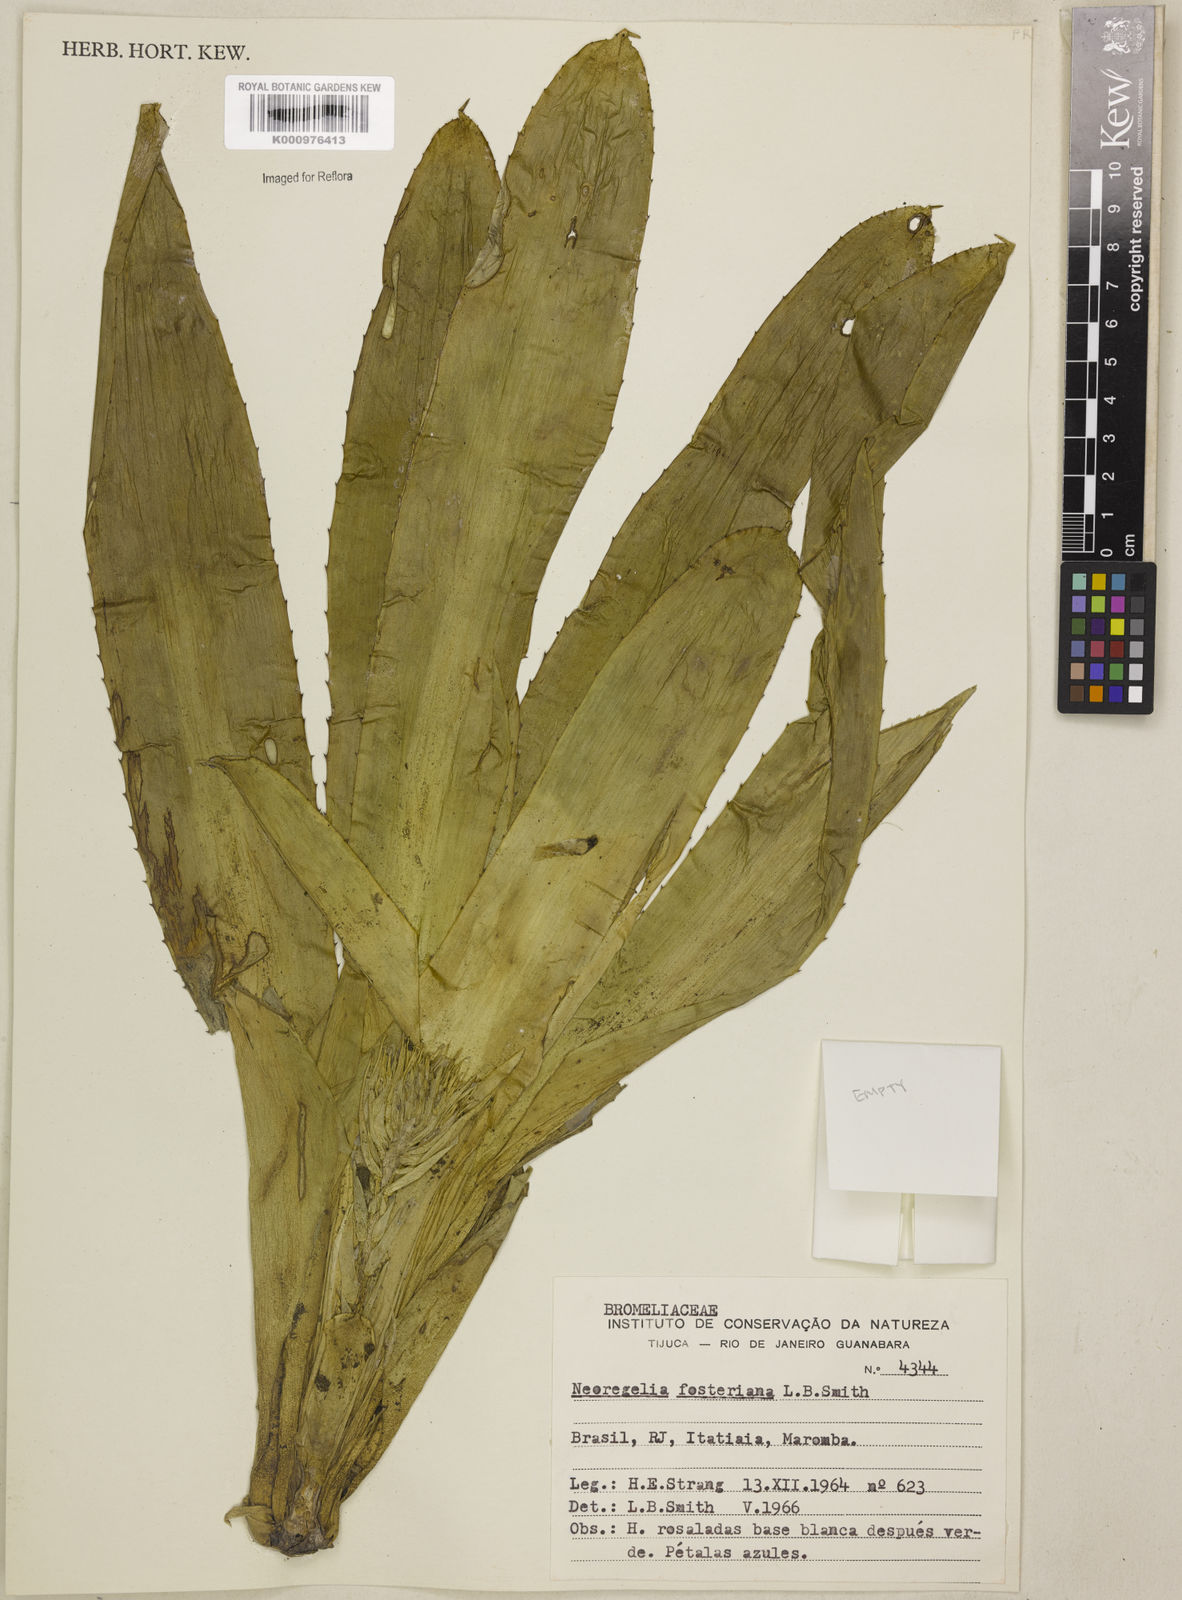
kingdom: Plantae
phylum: Tracheophyta
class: Liliopsida
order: Poales
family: Bromeliaceae
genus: Neoregelia
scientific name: Neoregelia fosteriana
